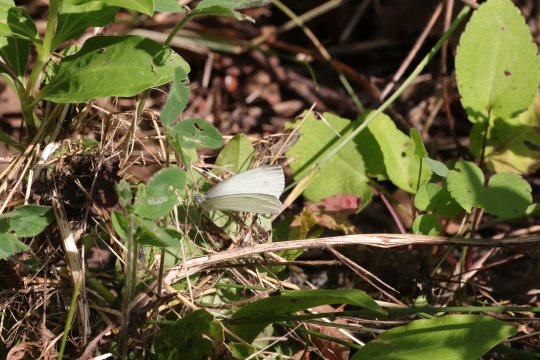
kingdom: Animalia
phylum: Arthropoda
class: Insecta
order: Lepidoptera
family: Pieridae
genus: Pieris
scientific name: Pieris rapae
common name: Cabbage White
